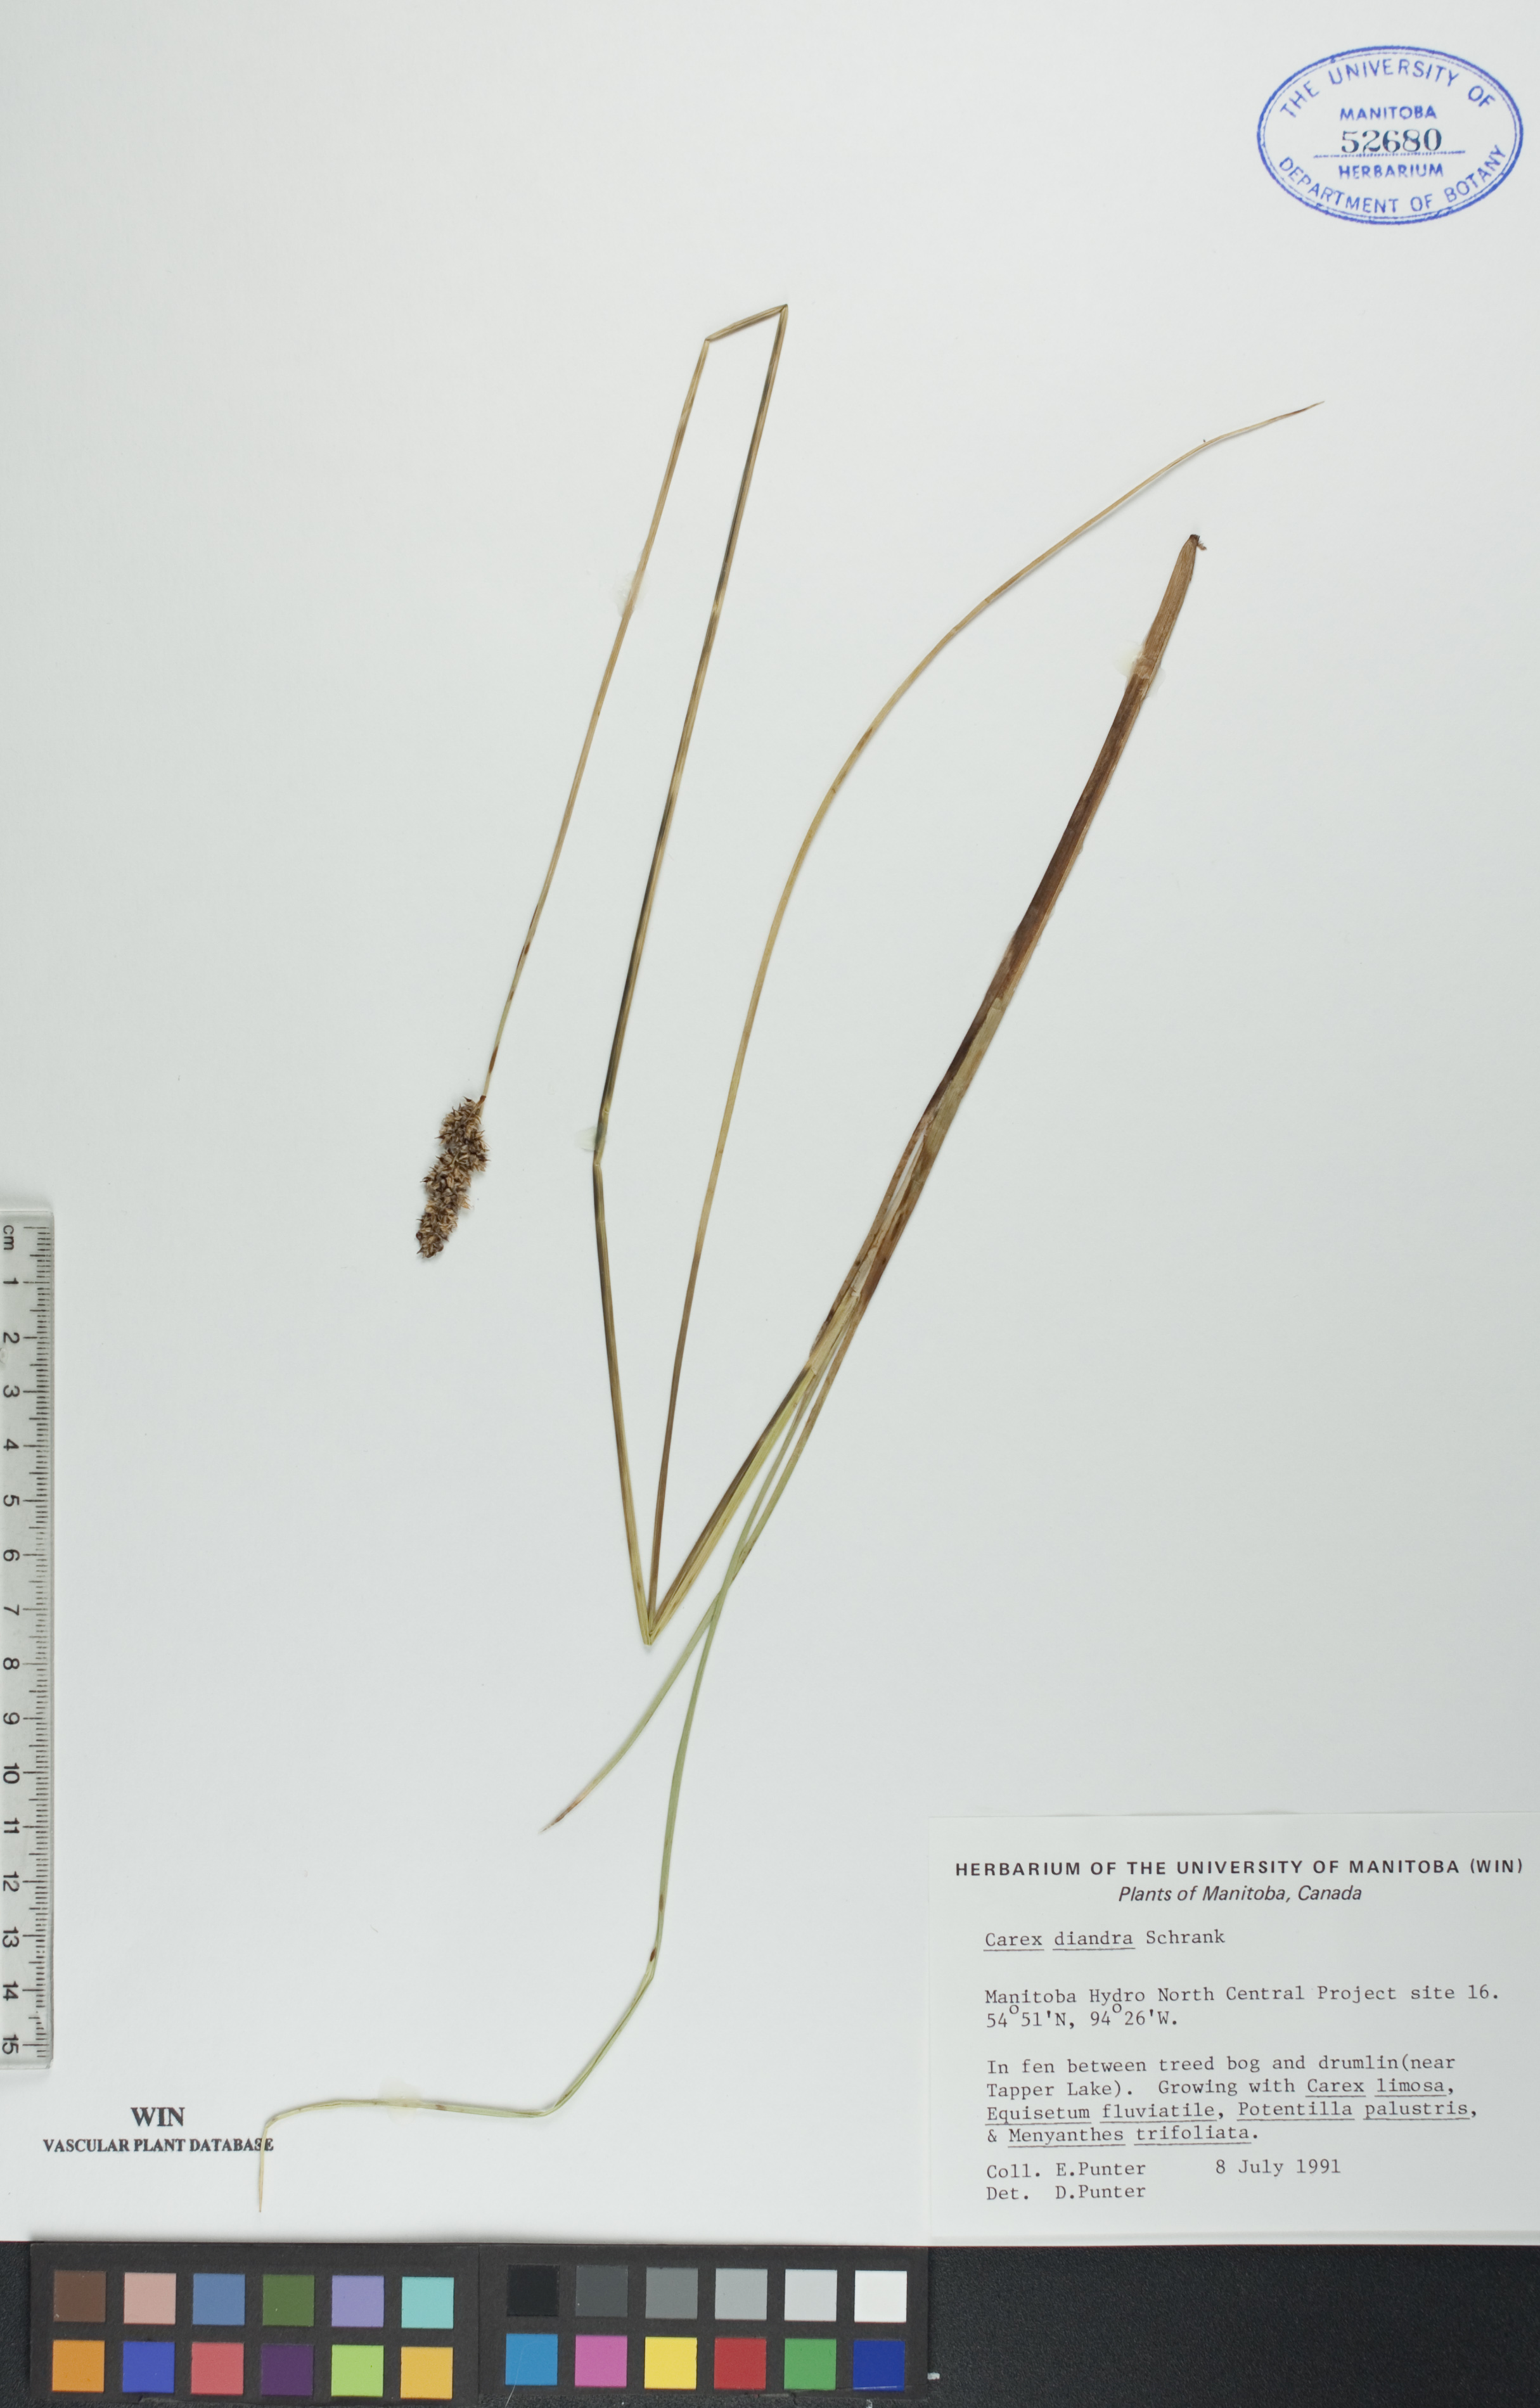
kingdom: Plantae
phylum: Tracheophyta
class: Liliopsida
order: Poales
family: Cyperaceae
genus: Carex
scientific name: Carex diandra
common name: Lesser tussock-sedge
